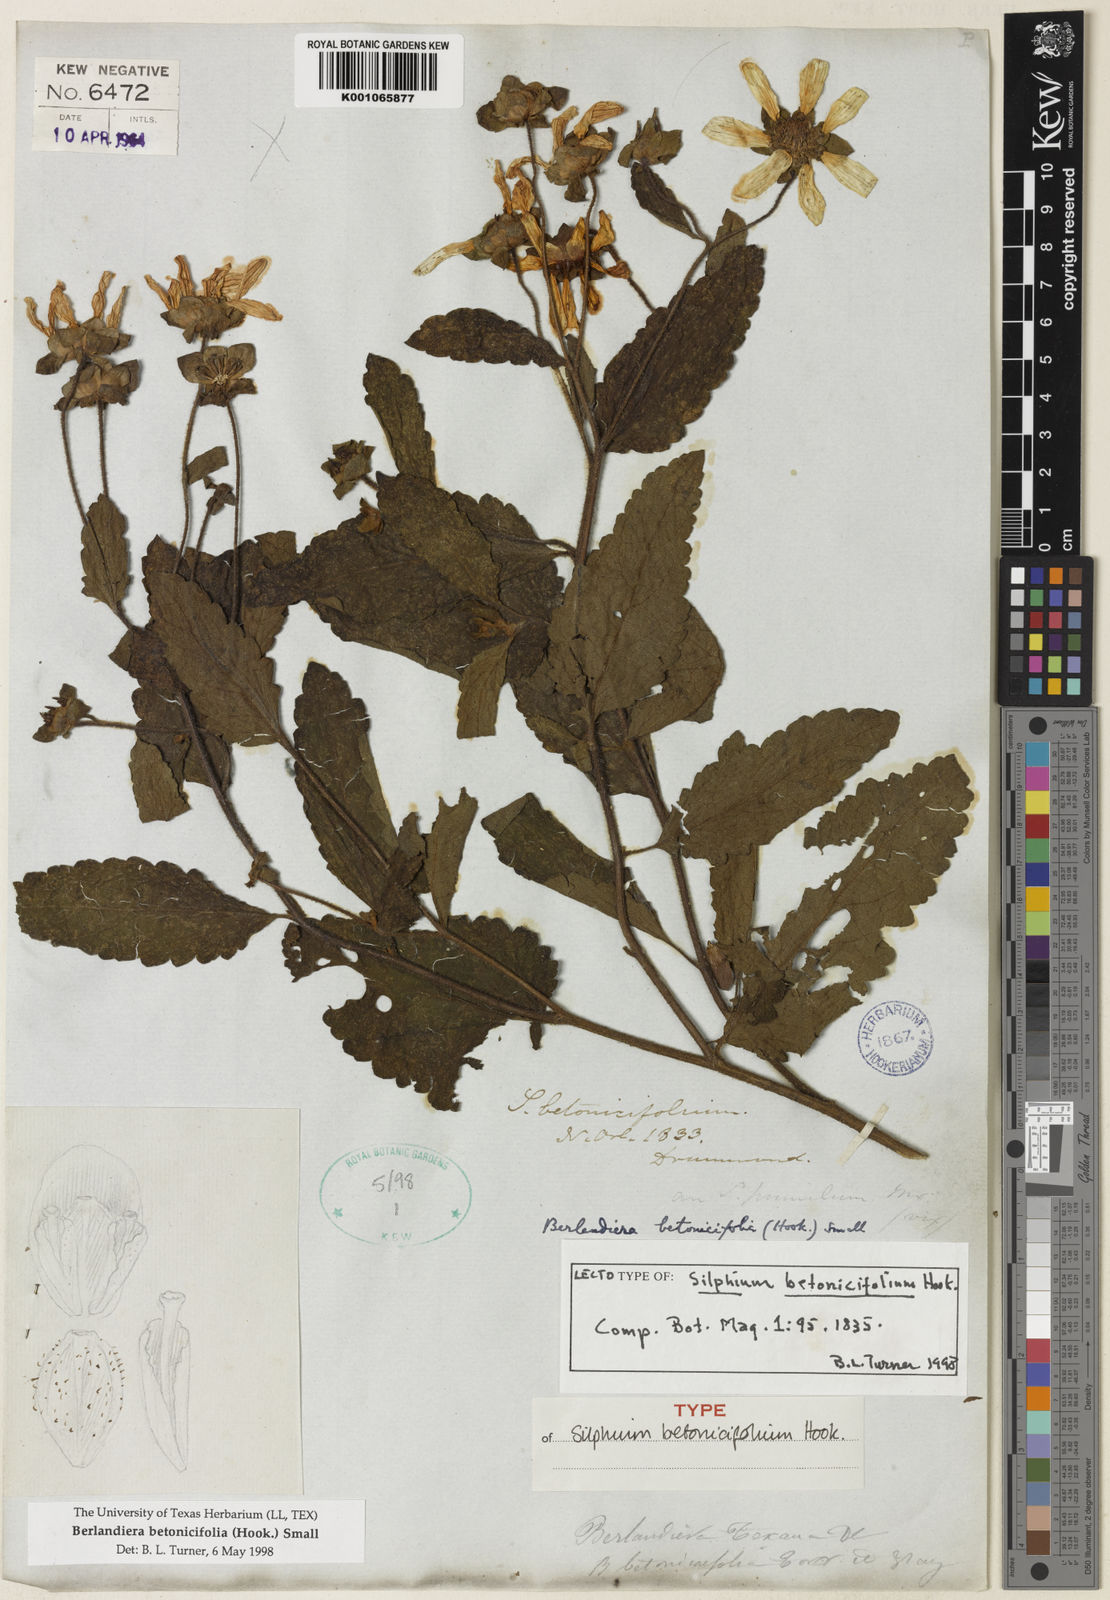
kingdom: Plantae
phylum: Tracheophyta
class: Magnoliopsida
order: Asterales
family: Asteraceae
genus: Berlandiera
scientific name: Berlandiera
